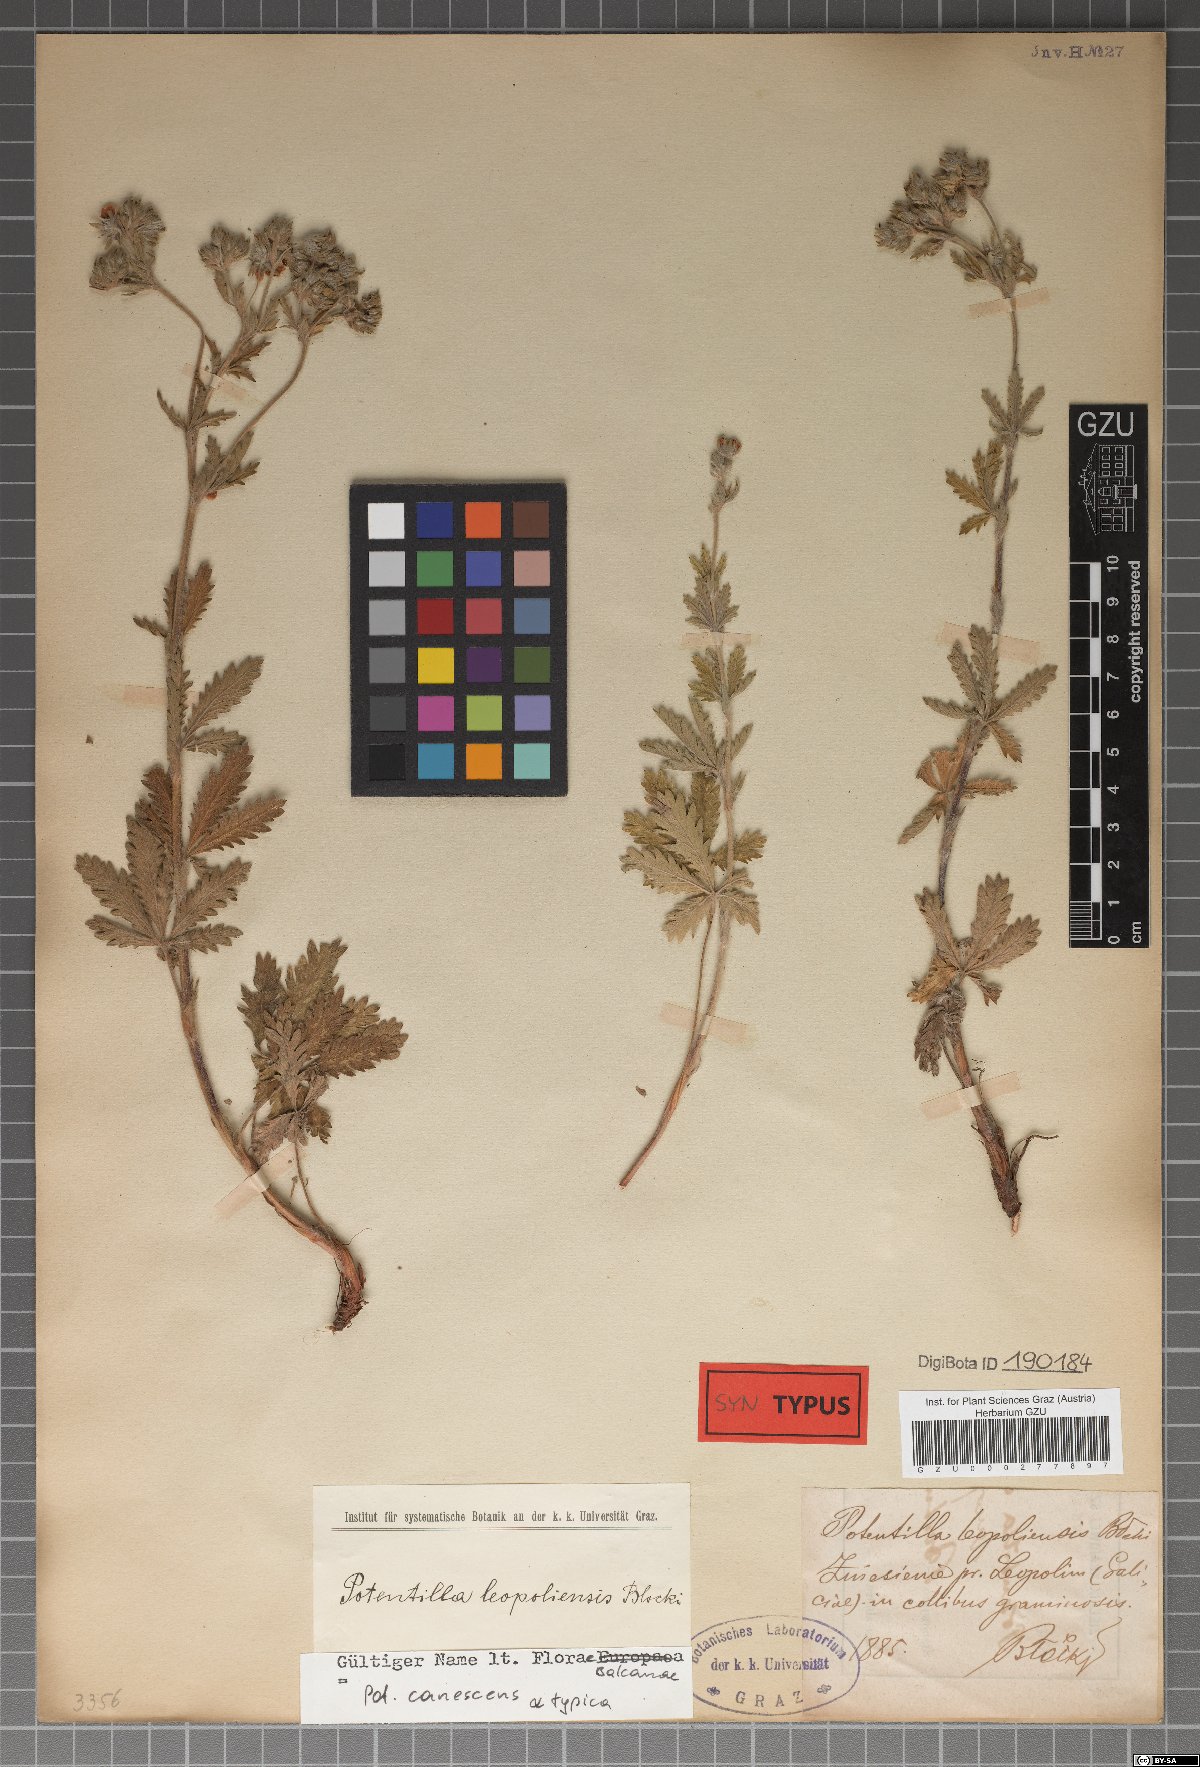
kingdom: Plantae
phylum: Tracheophyta
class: Magnoliopsida
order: Rosales
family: Rosaceae
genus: Potentilla
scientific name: Potentilla inclinata
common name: Grey cinquefoil
